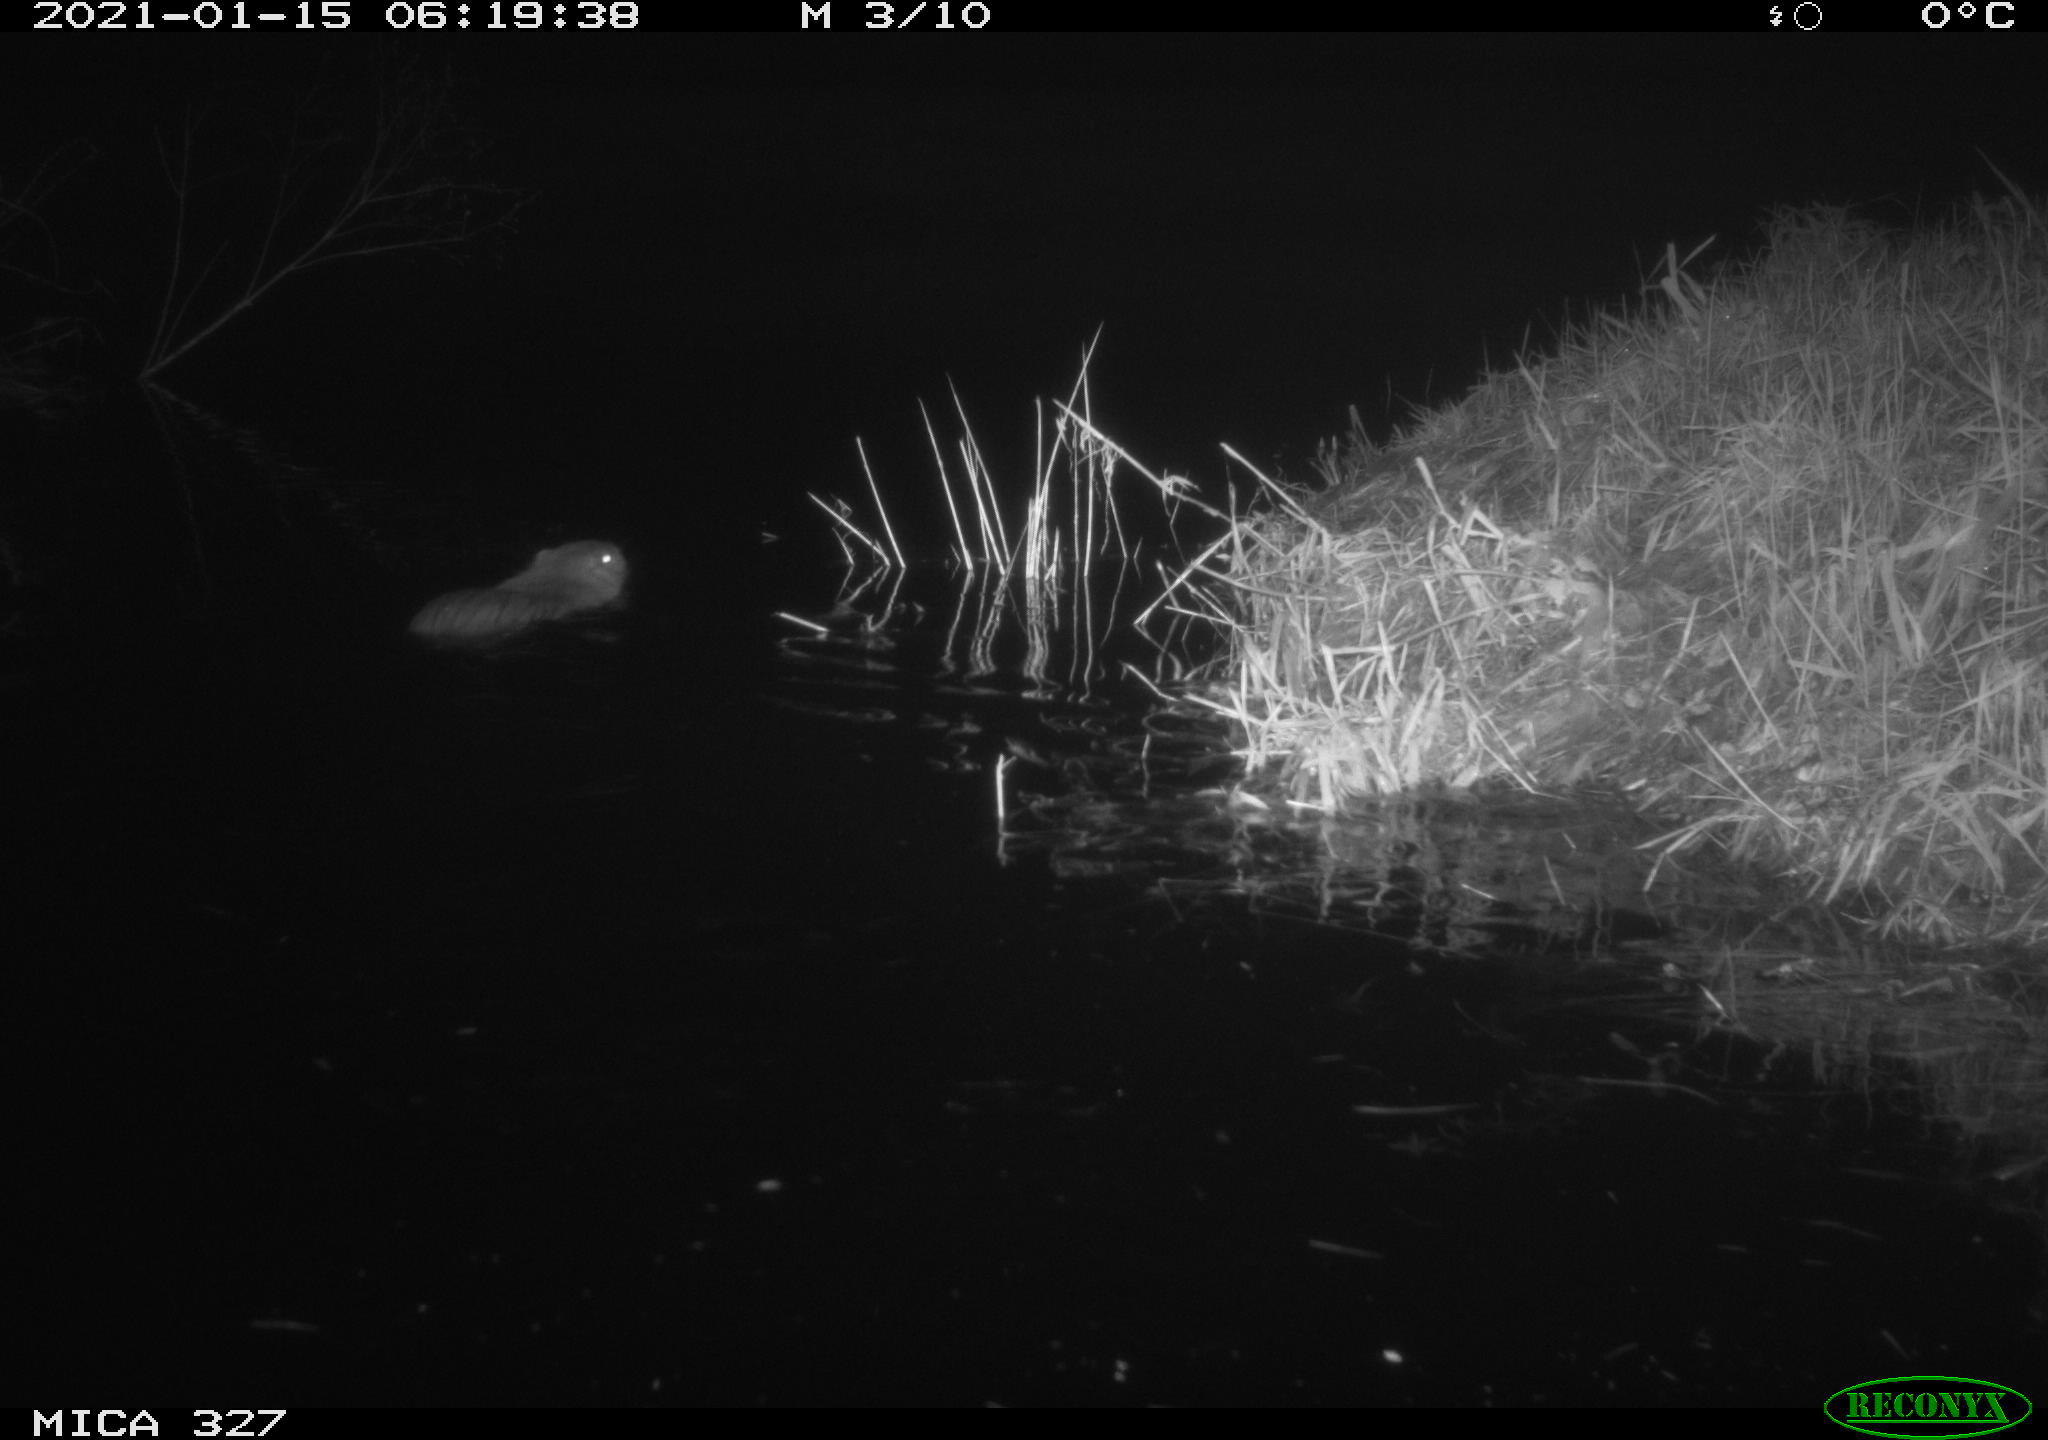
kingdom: Animalia
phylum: Chordata
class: Mammalia
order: Rodentia
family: Myocastoridae
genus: Myocastor
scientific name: Myocastor coypus
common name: Coypu
